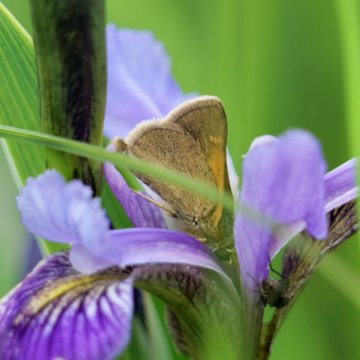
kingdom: Animalia
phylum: Arthropoda
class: Insecta
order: Lepidoptera
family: Hesperiidae
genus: Polites
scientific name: Polites themistocles
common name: Tawny-edged Skipper
